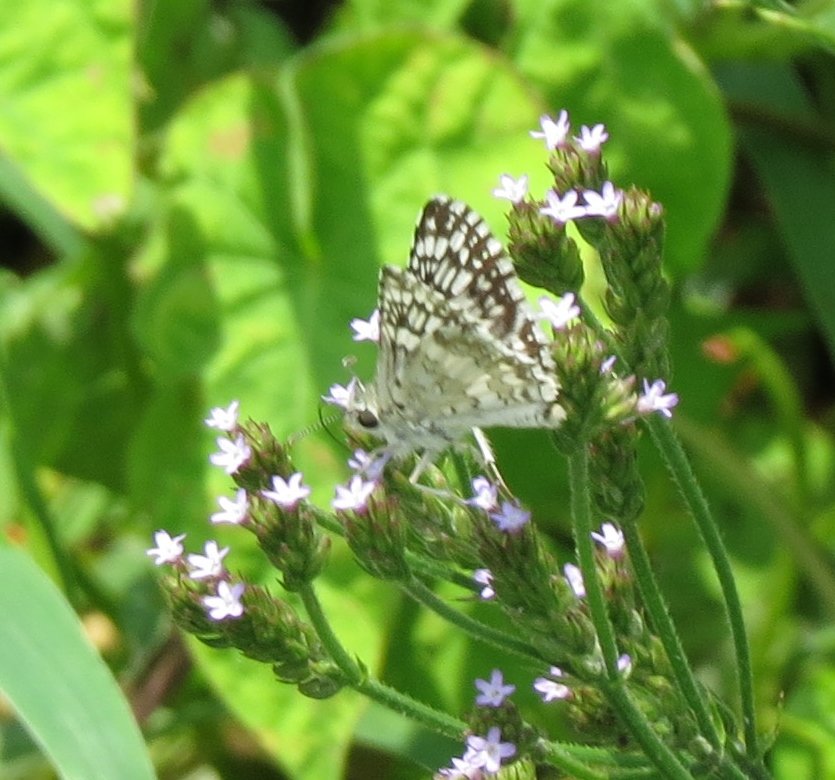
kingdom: Animalia
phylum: Arthropoda
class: Insecta
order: Lepidoptera
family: Hesperiidae
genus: Pyrgus
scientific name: Pyrgus communis
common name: White Checkered-Skipper
